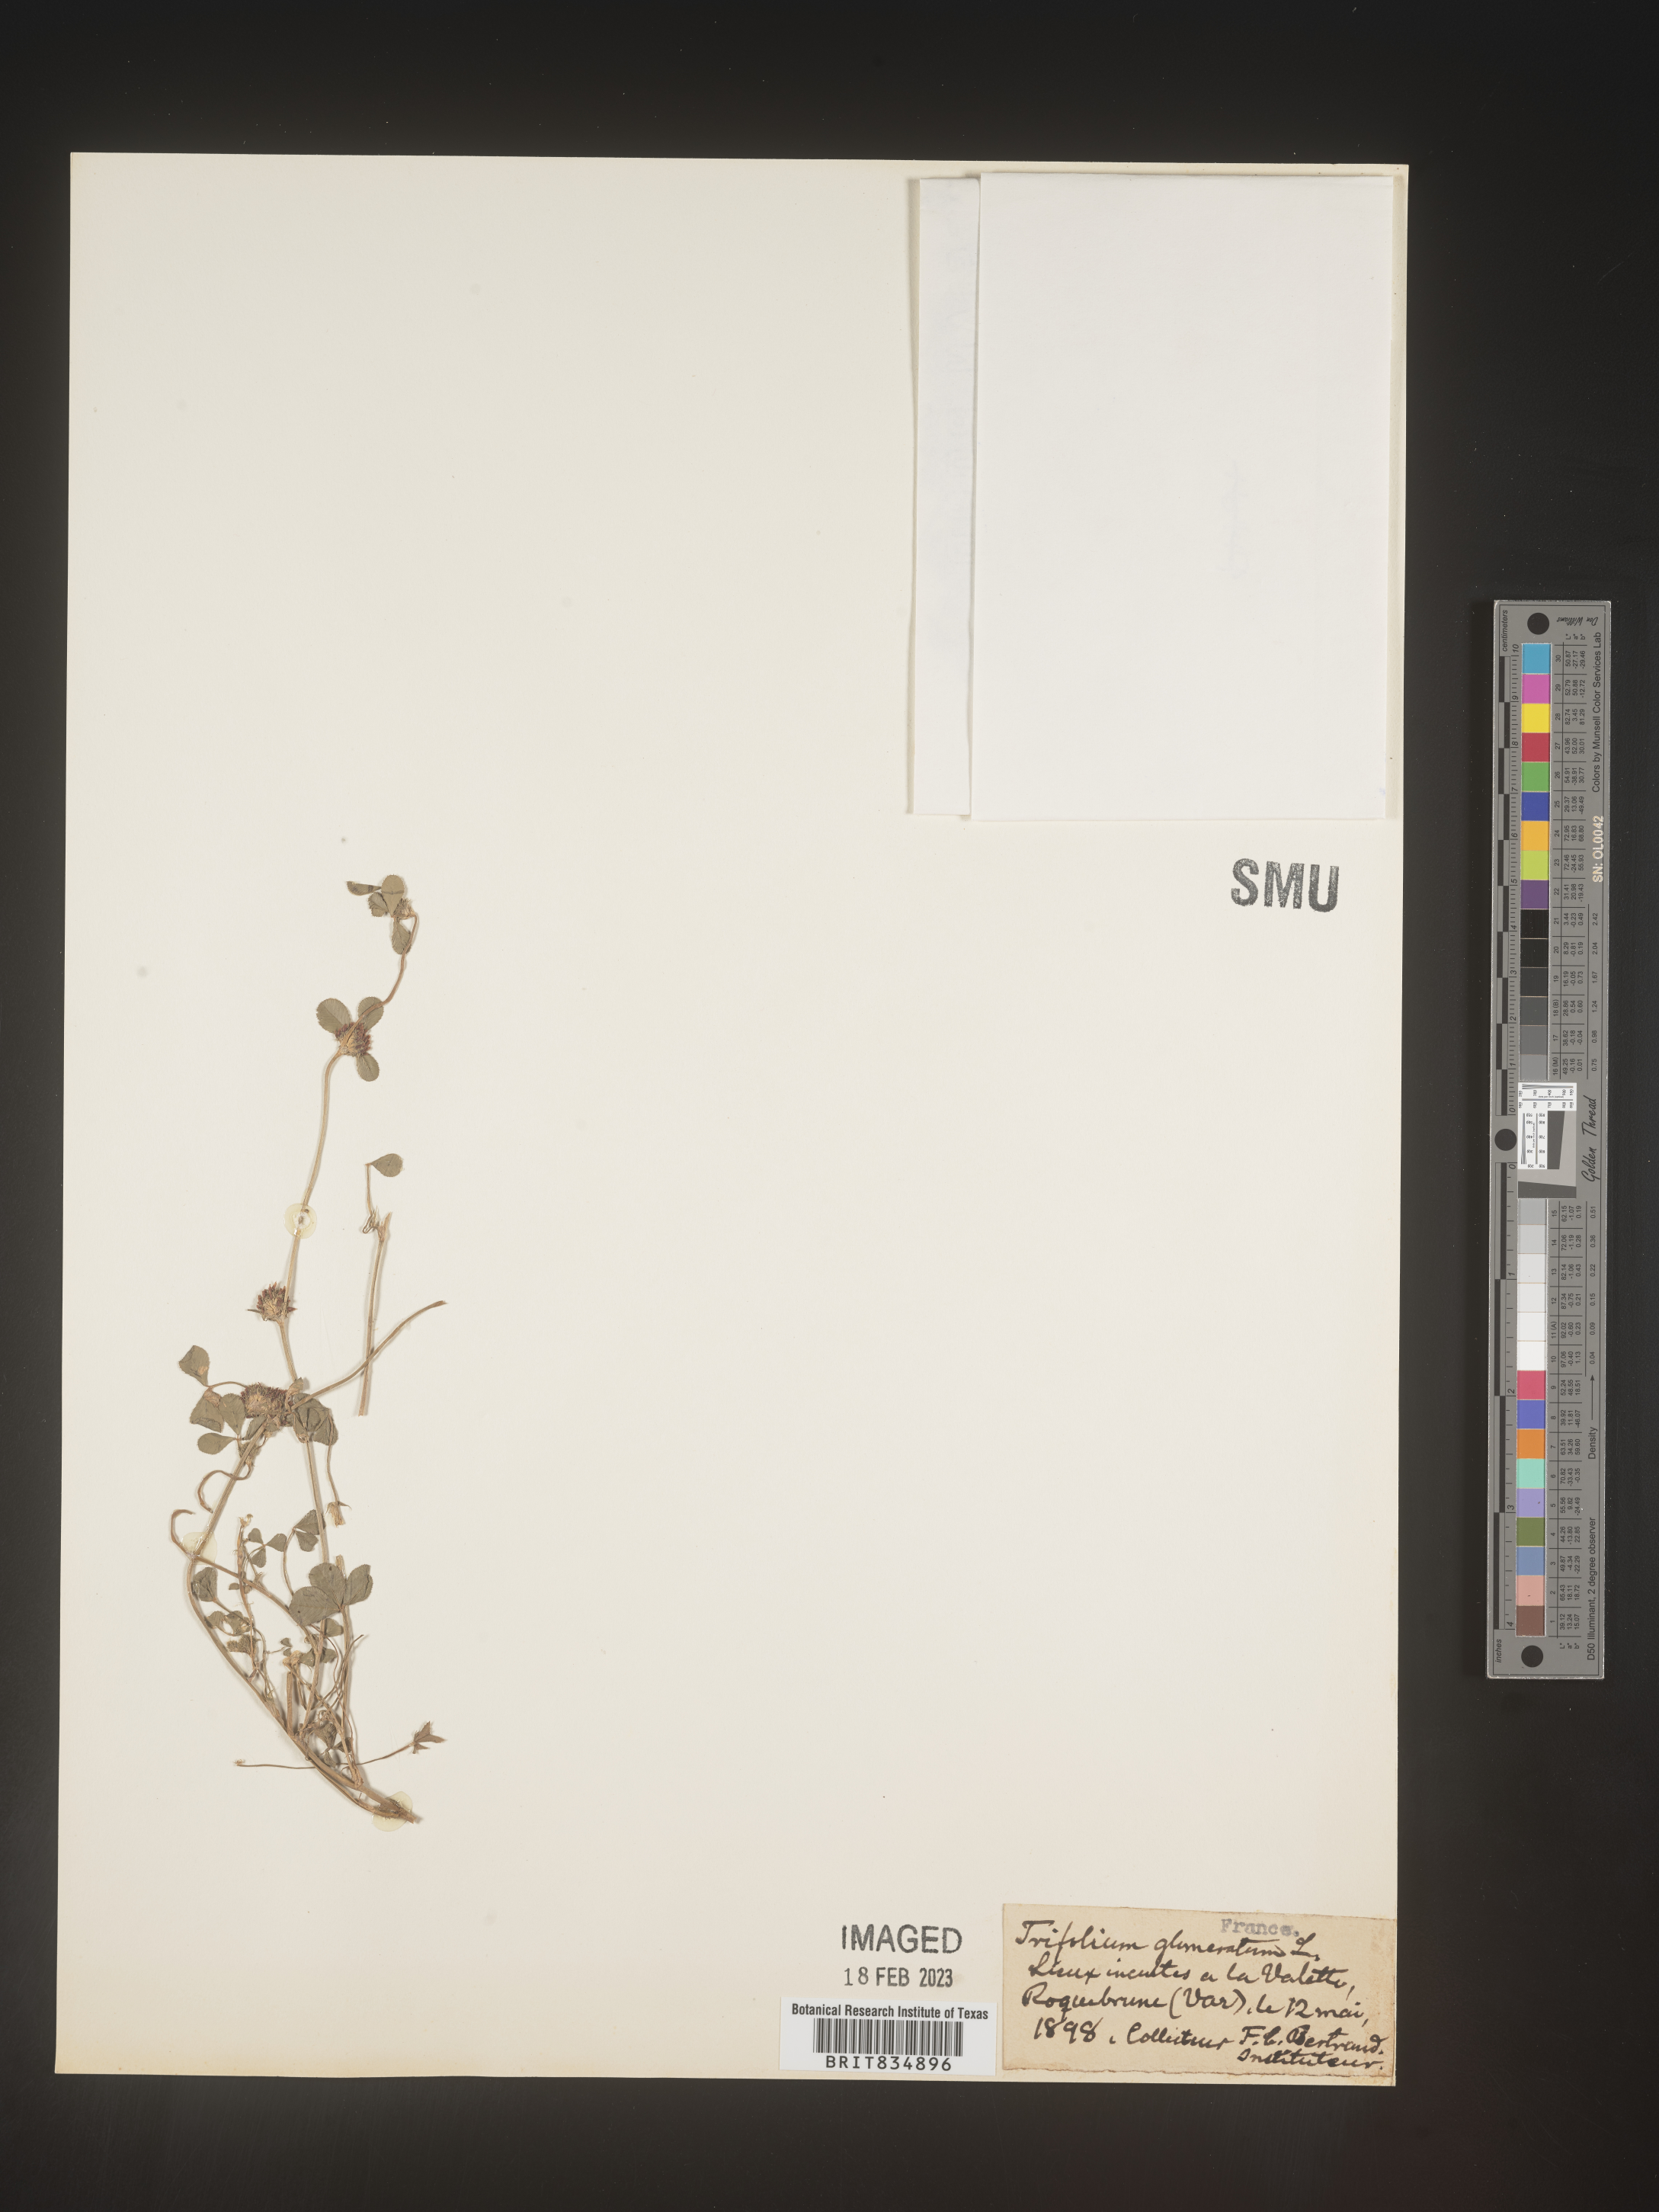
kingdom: Plantae
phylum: Tracheophyta
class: Magnoliopsida
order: Fabales
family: Fabaceae
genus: Trifolium
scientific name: Trifolium
